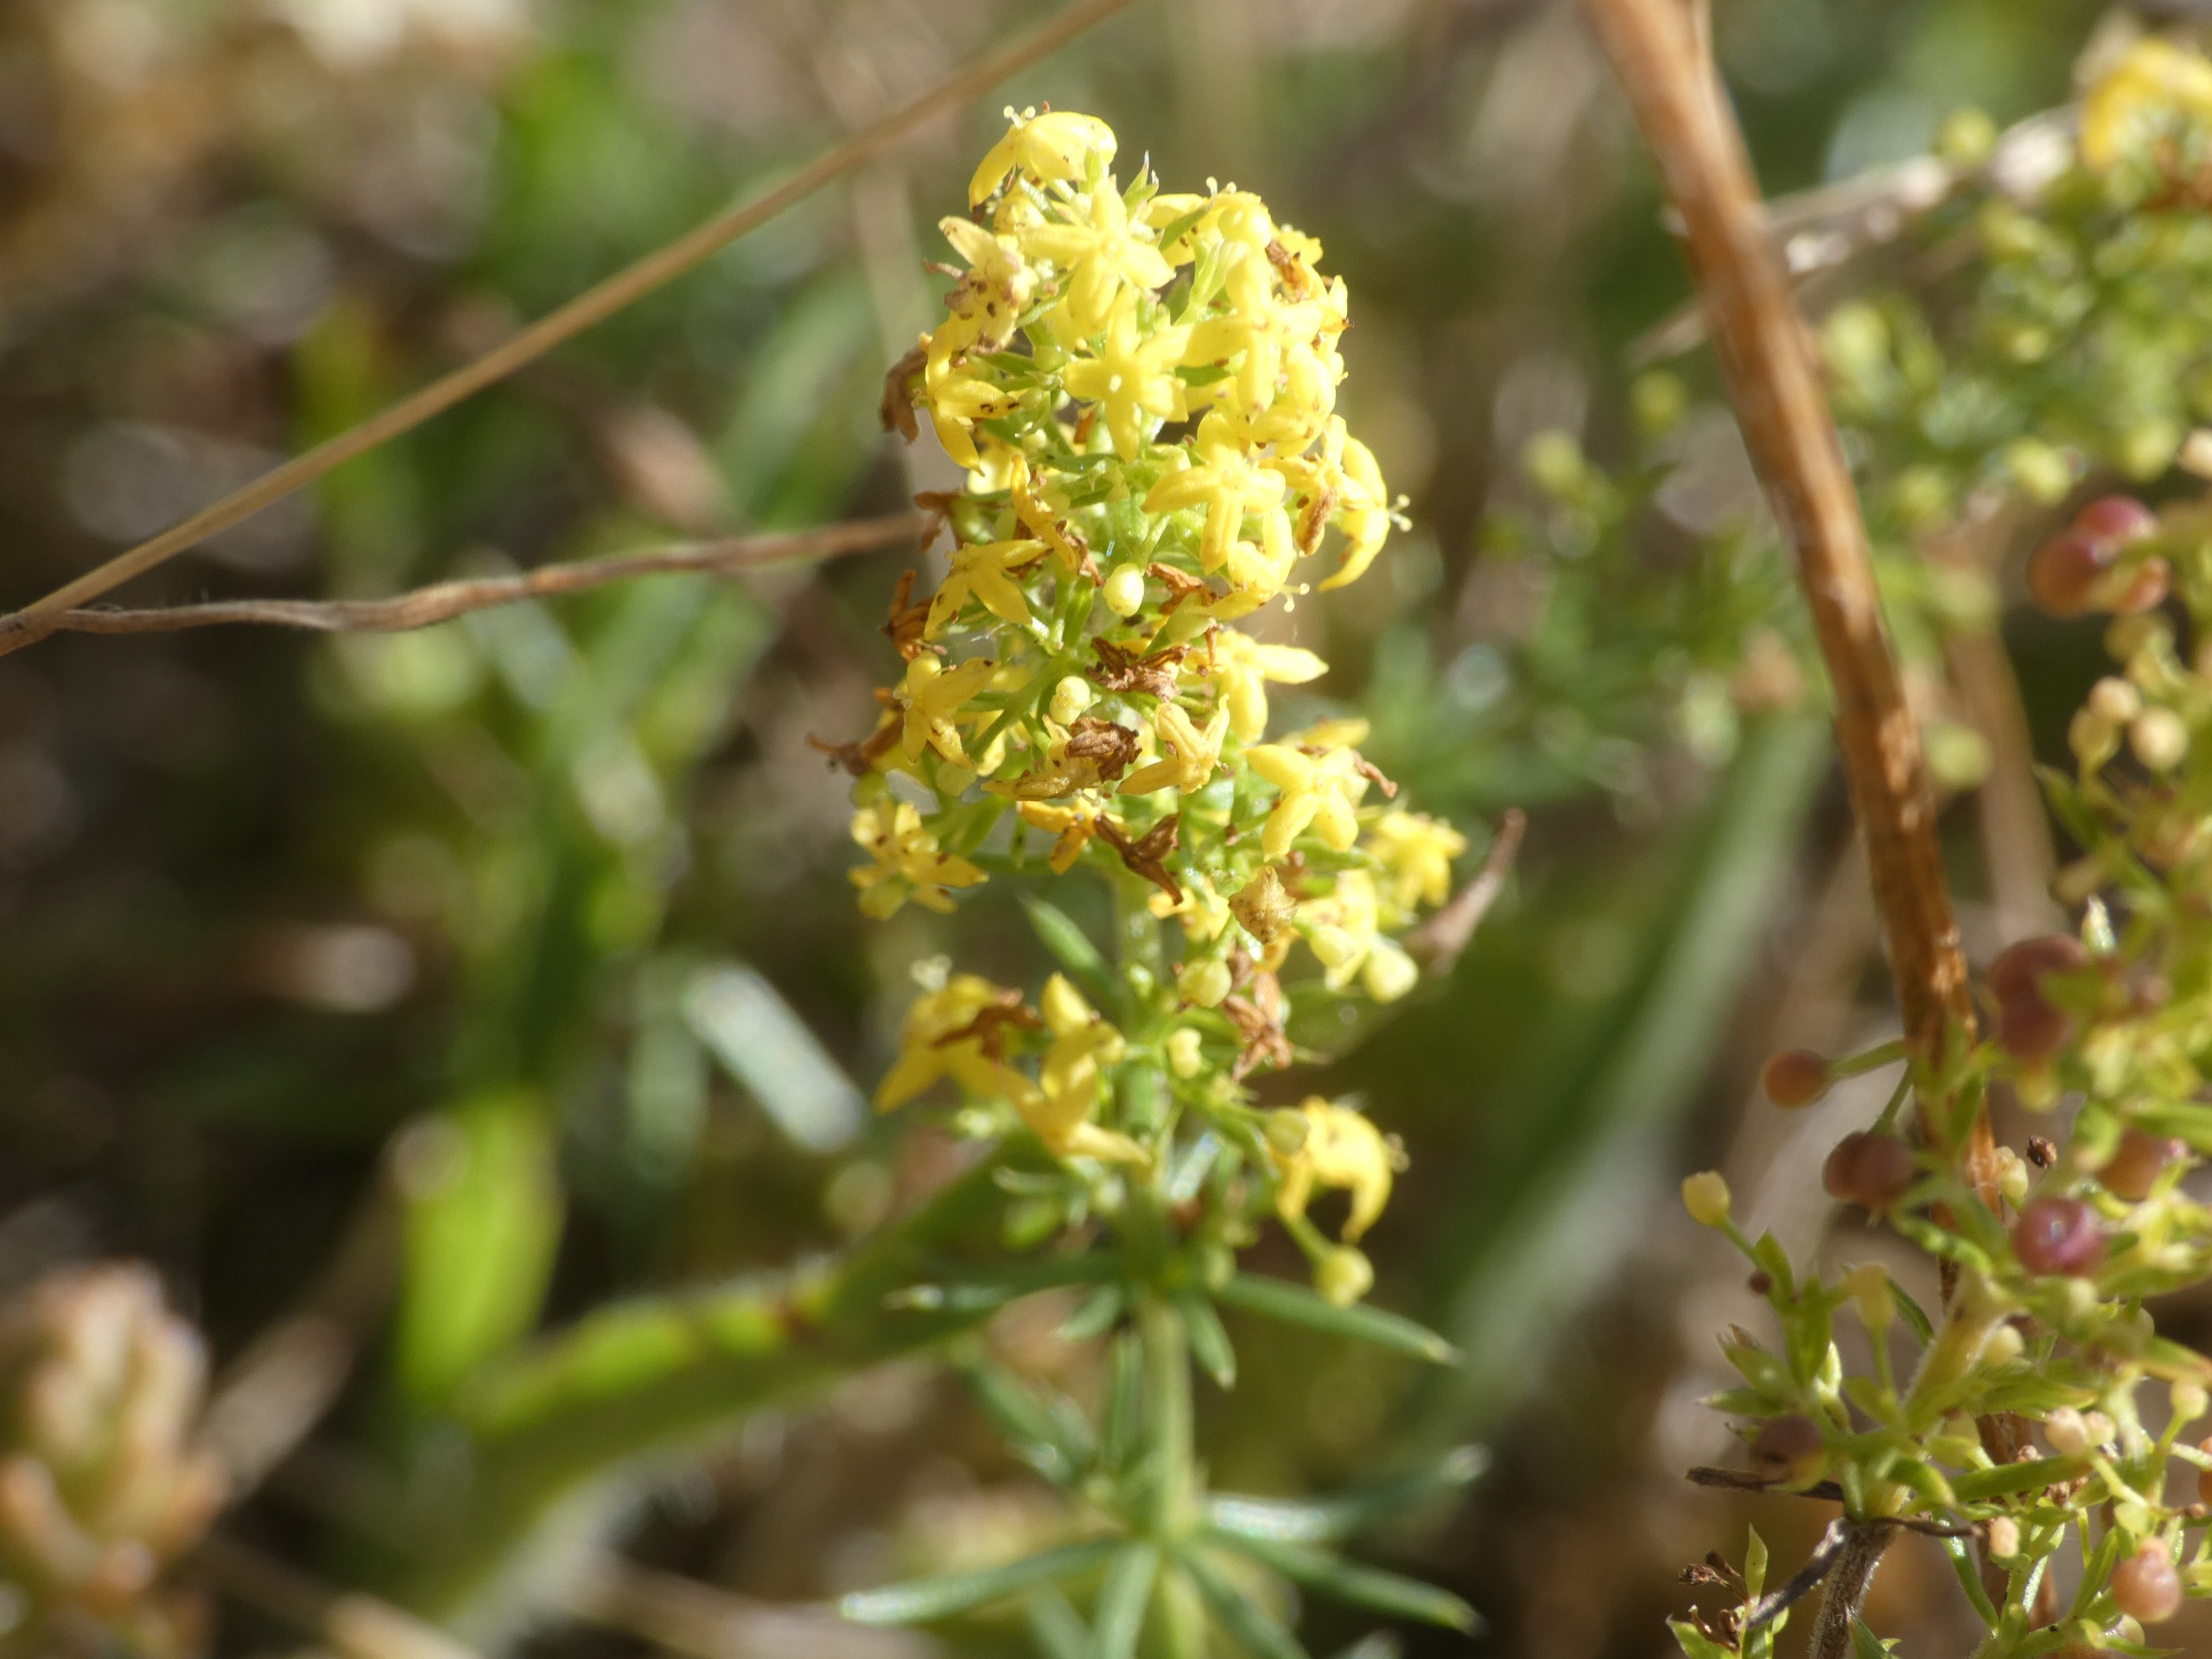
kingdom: Plantae
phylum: Tracheophyta
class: Magnoliopsida
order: Gentianales
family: Rubiaceae
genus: Galium
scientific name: Galium verum
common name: Gul snerre
